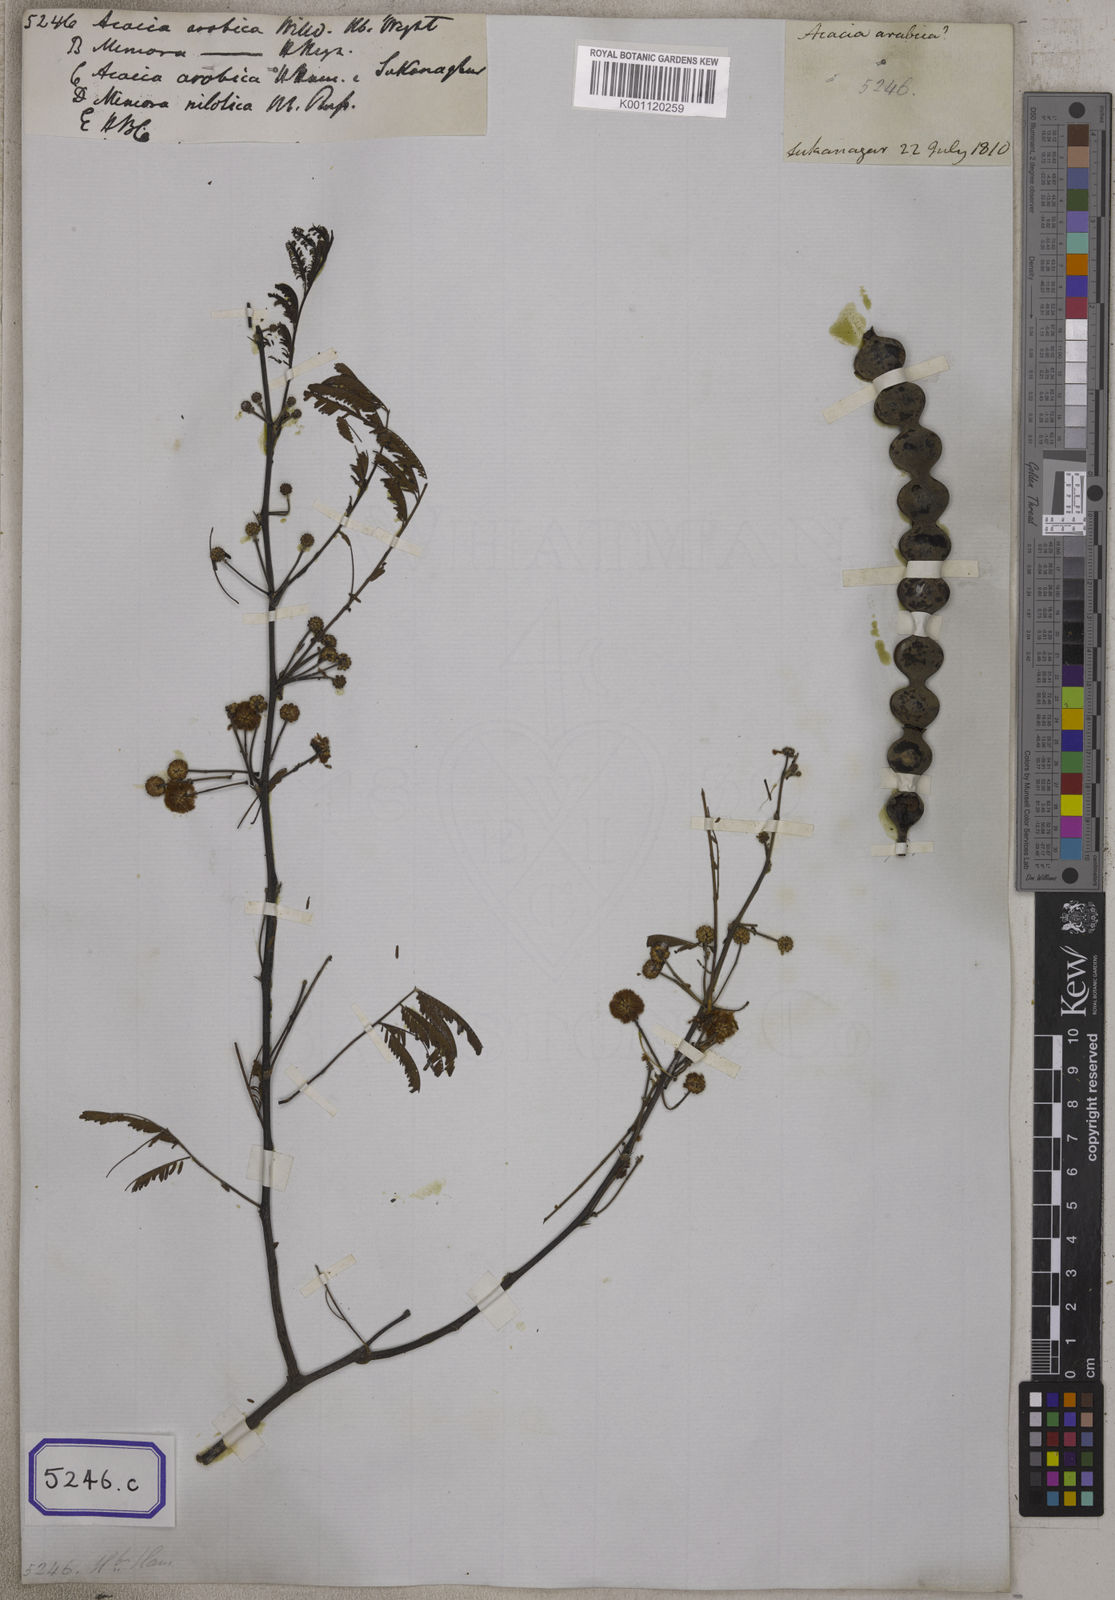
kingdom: Plantae
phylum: Tracheophyta
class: Magnoliopsida
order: Fabales
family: Fabaceae
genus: Vachellia
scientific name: Vachellia nilotica
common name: Arabic gumtree
